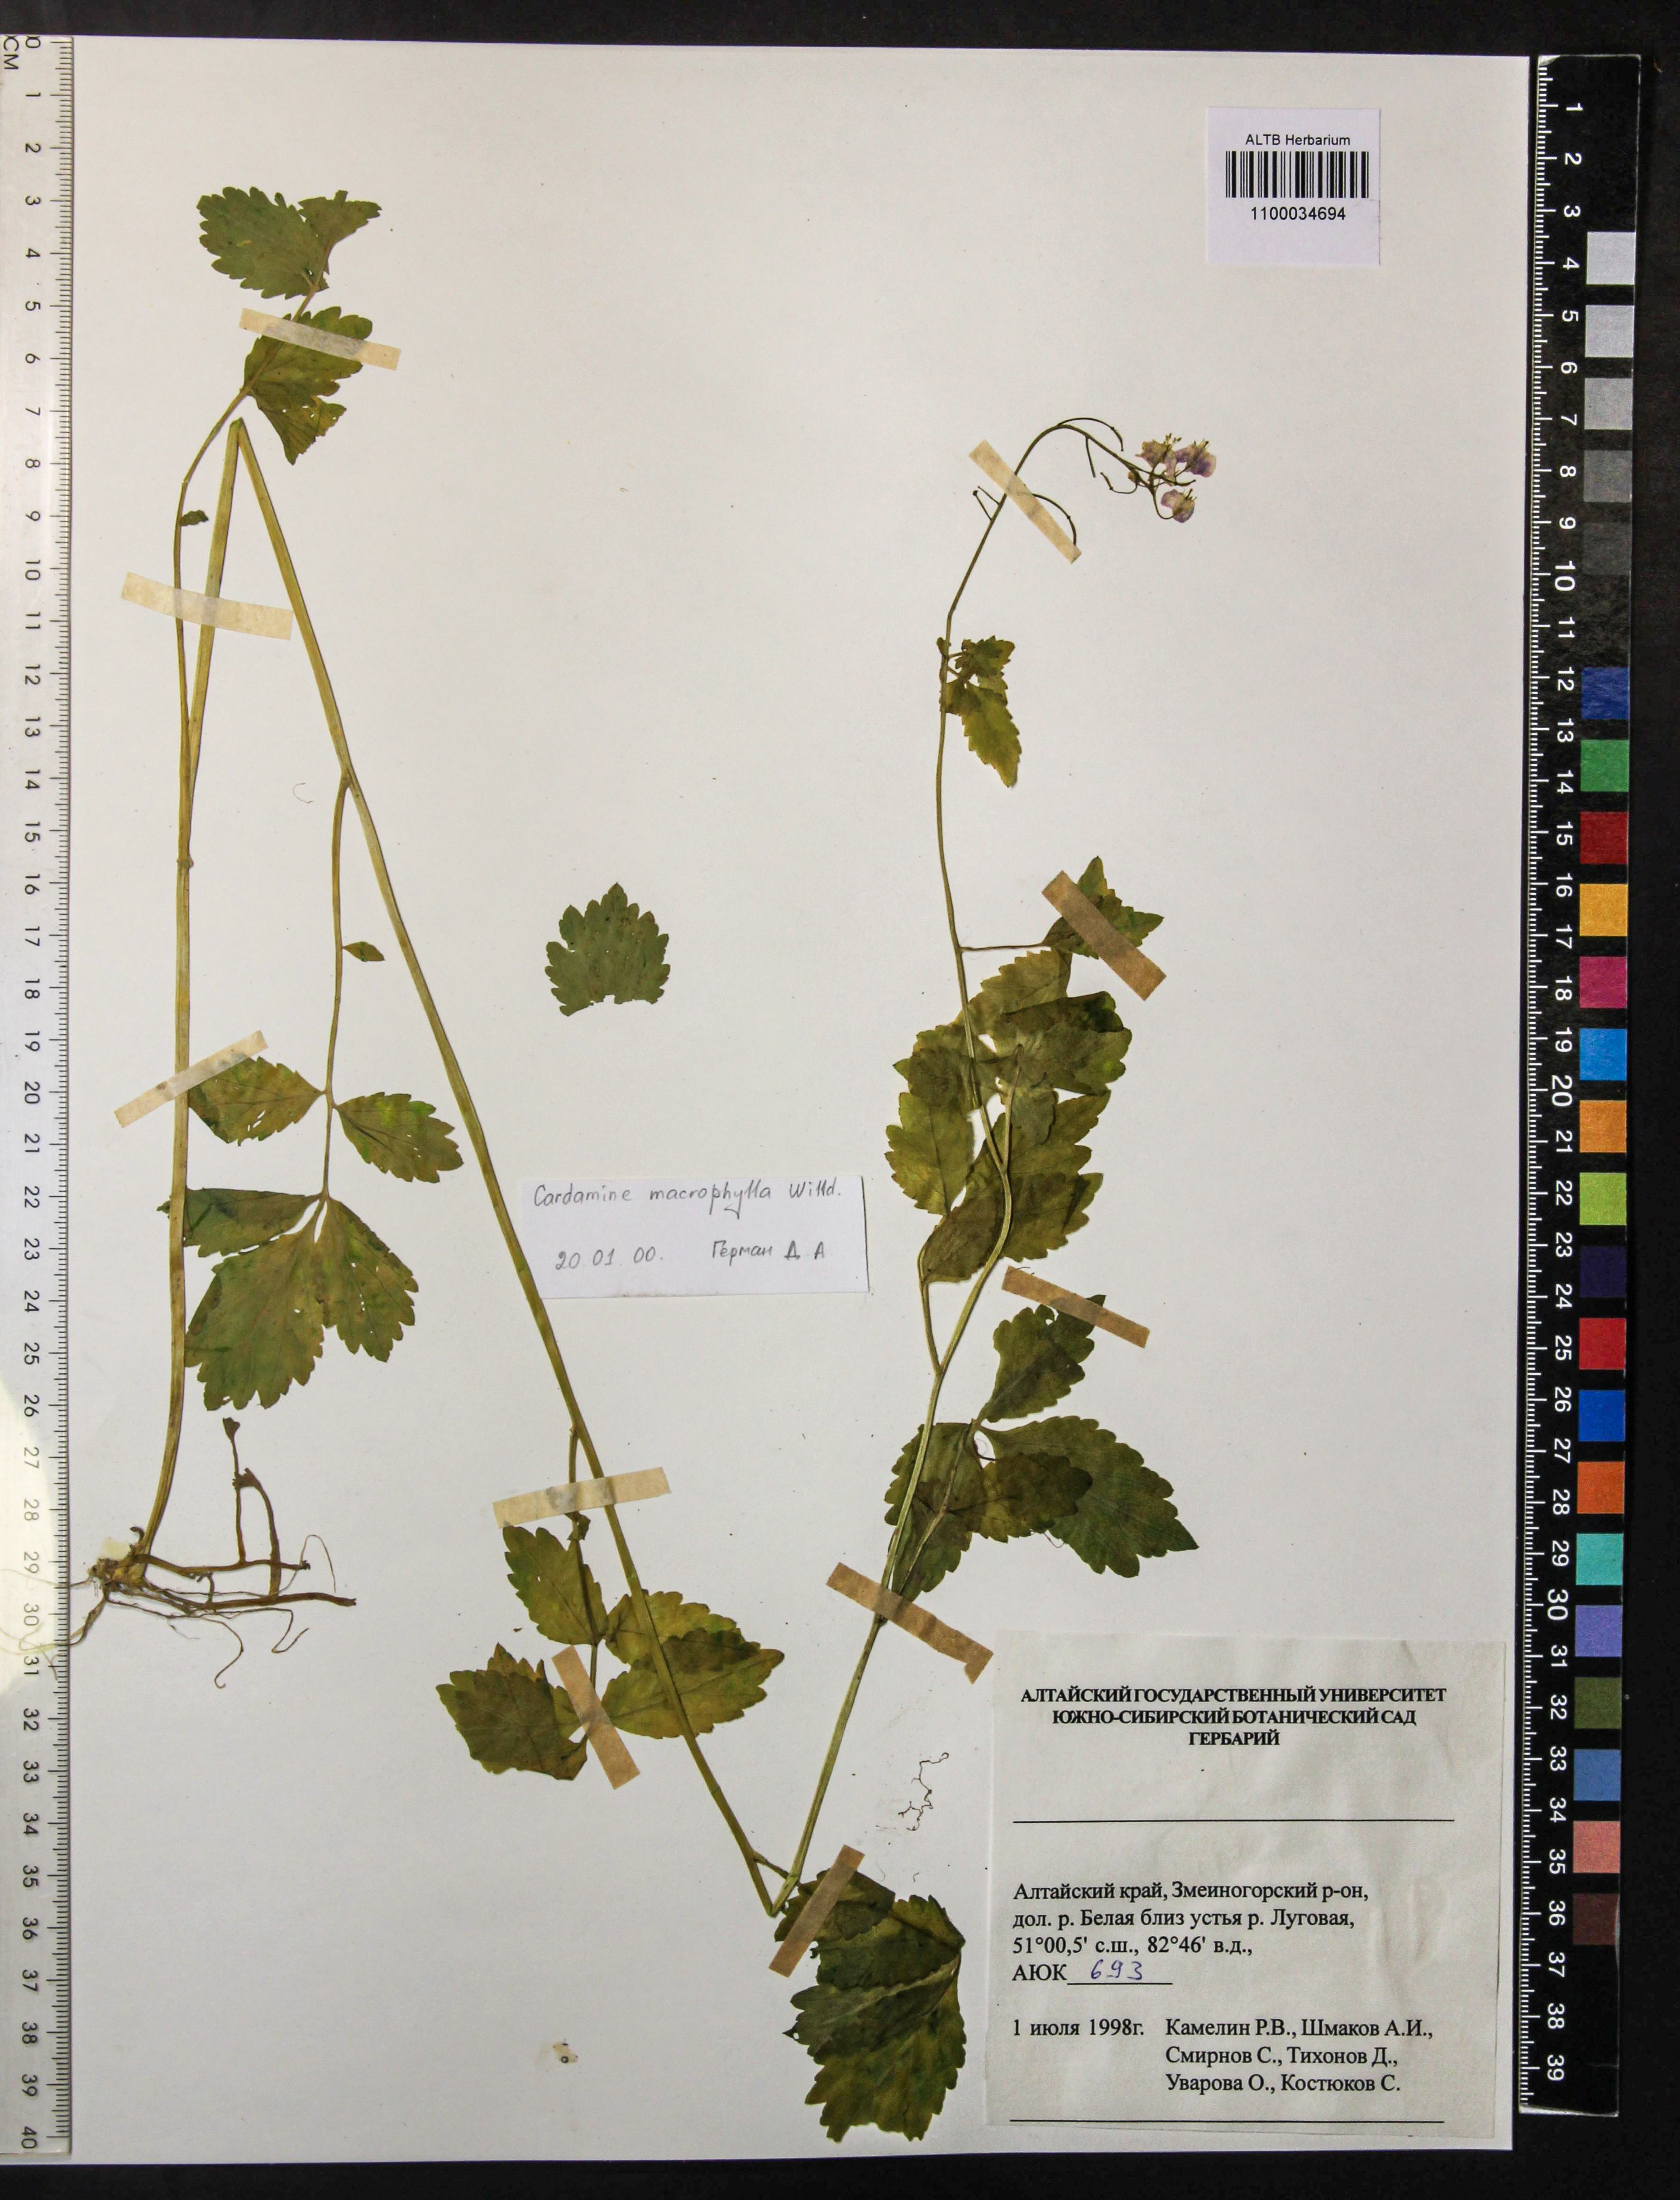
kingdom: Plantae
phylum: Tracheophyta
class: Magnoliopsida
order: Brassicales
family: Brassicaceae
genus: Cardamine
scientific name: Cardamine macrophylla
